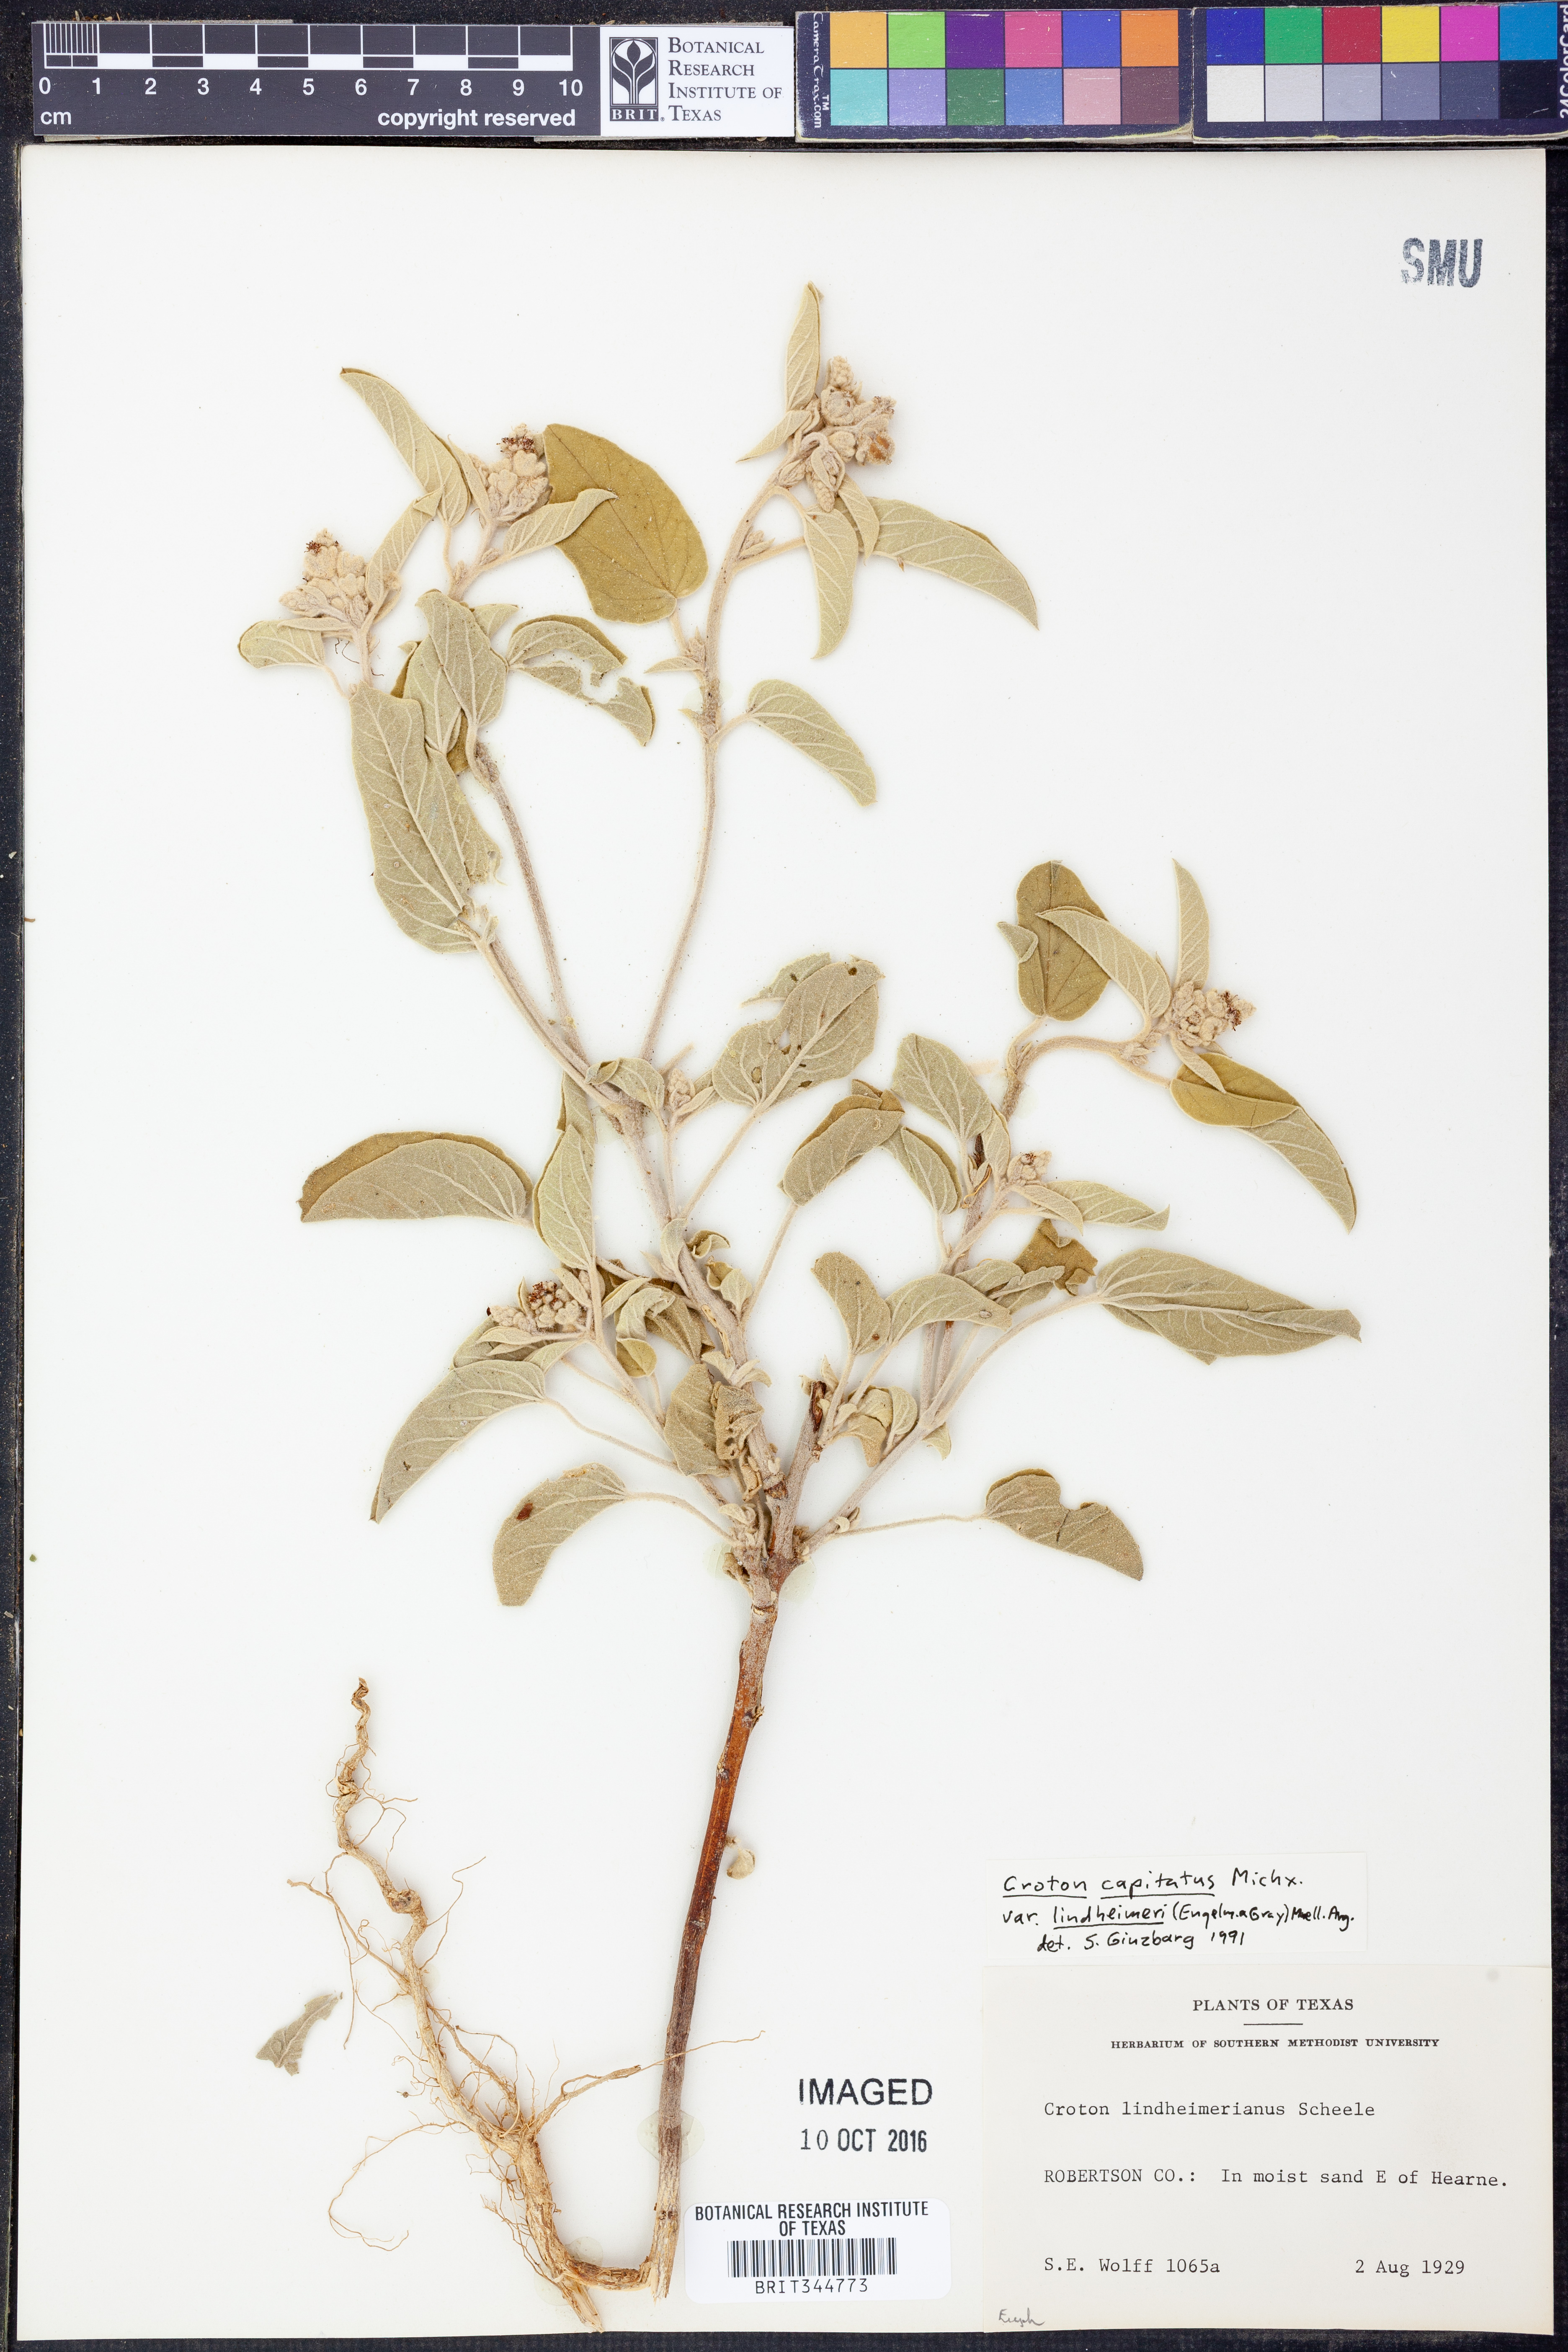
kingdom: Plantae
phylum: Tracheophyta
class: Magnoliopsida
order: Malpighiales
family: Euphorbiaceae
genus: Croton
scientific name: Croton lindheimeri
